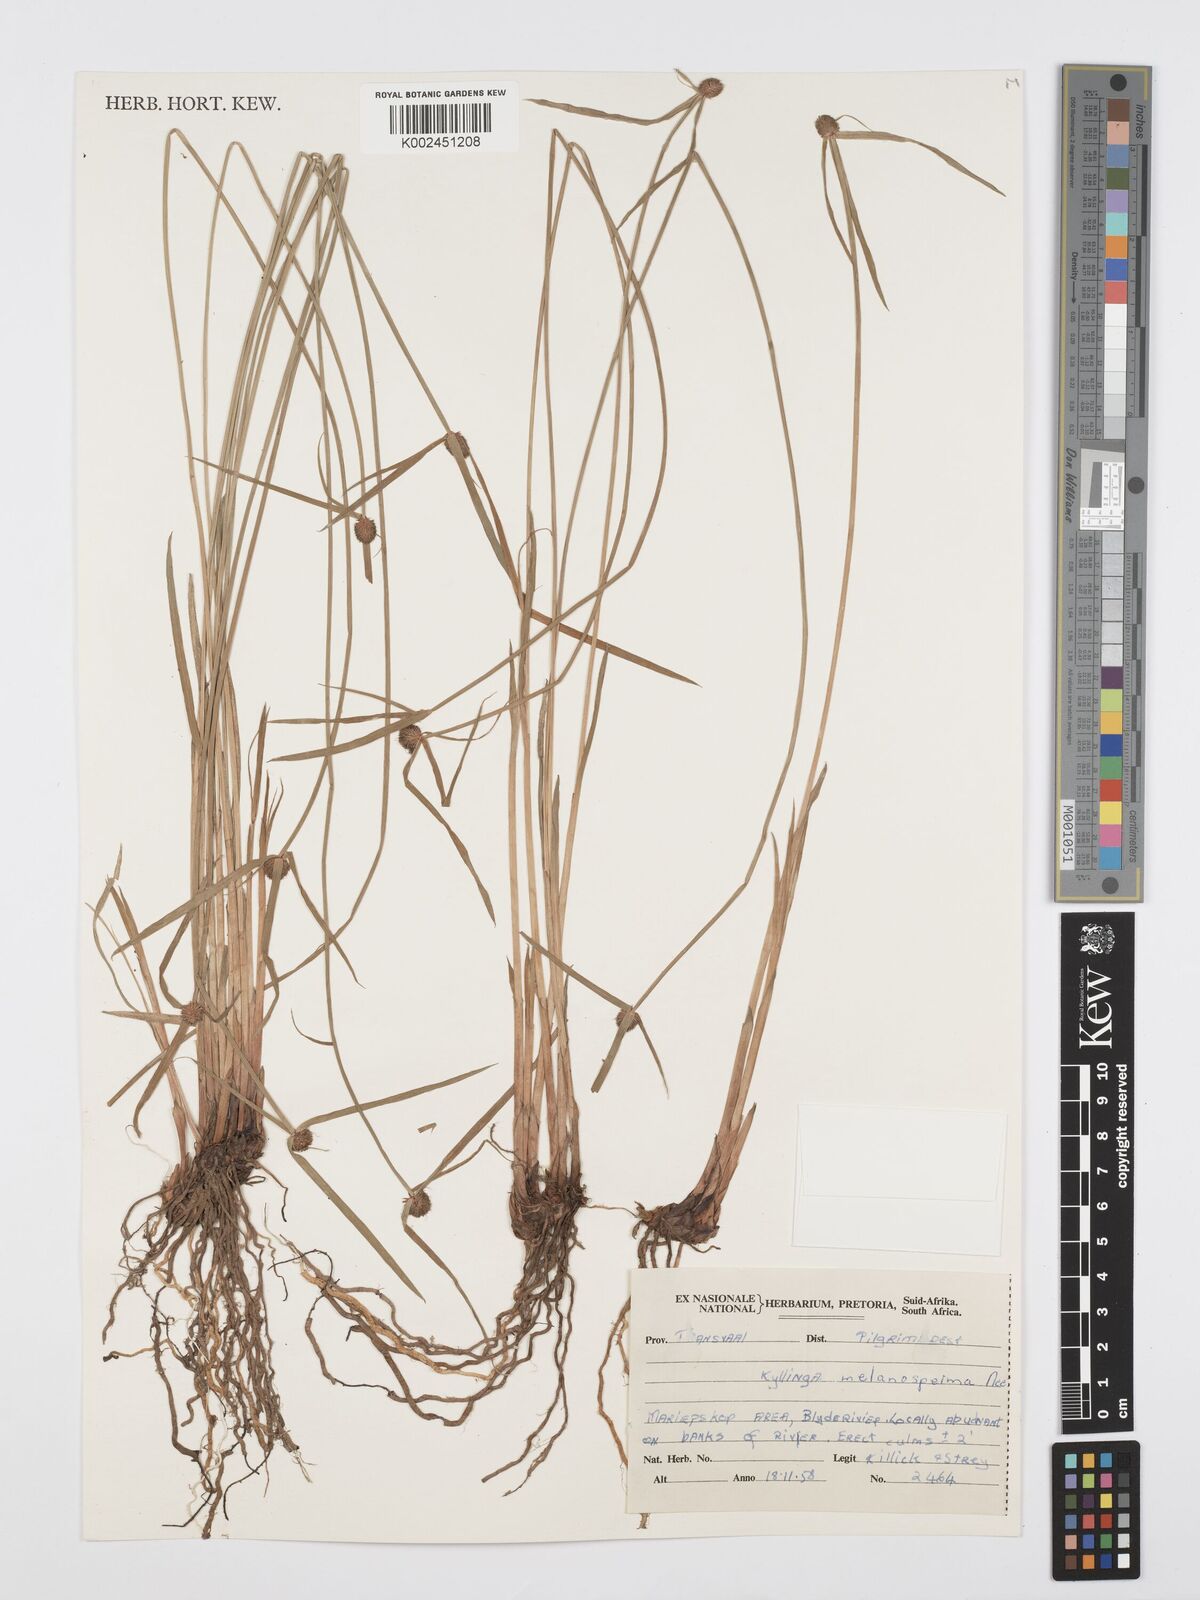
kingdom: Plantae
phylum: Tracheophyta
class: Liliopsida
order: Poales
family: Cyperaceae
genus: Cyperus
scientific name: Cyperus melanospermus
